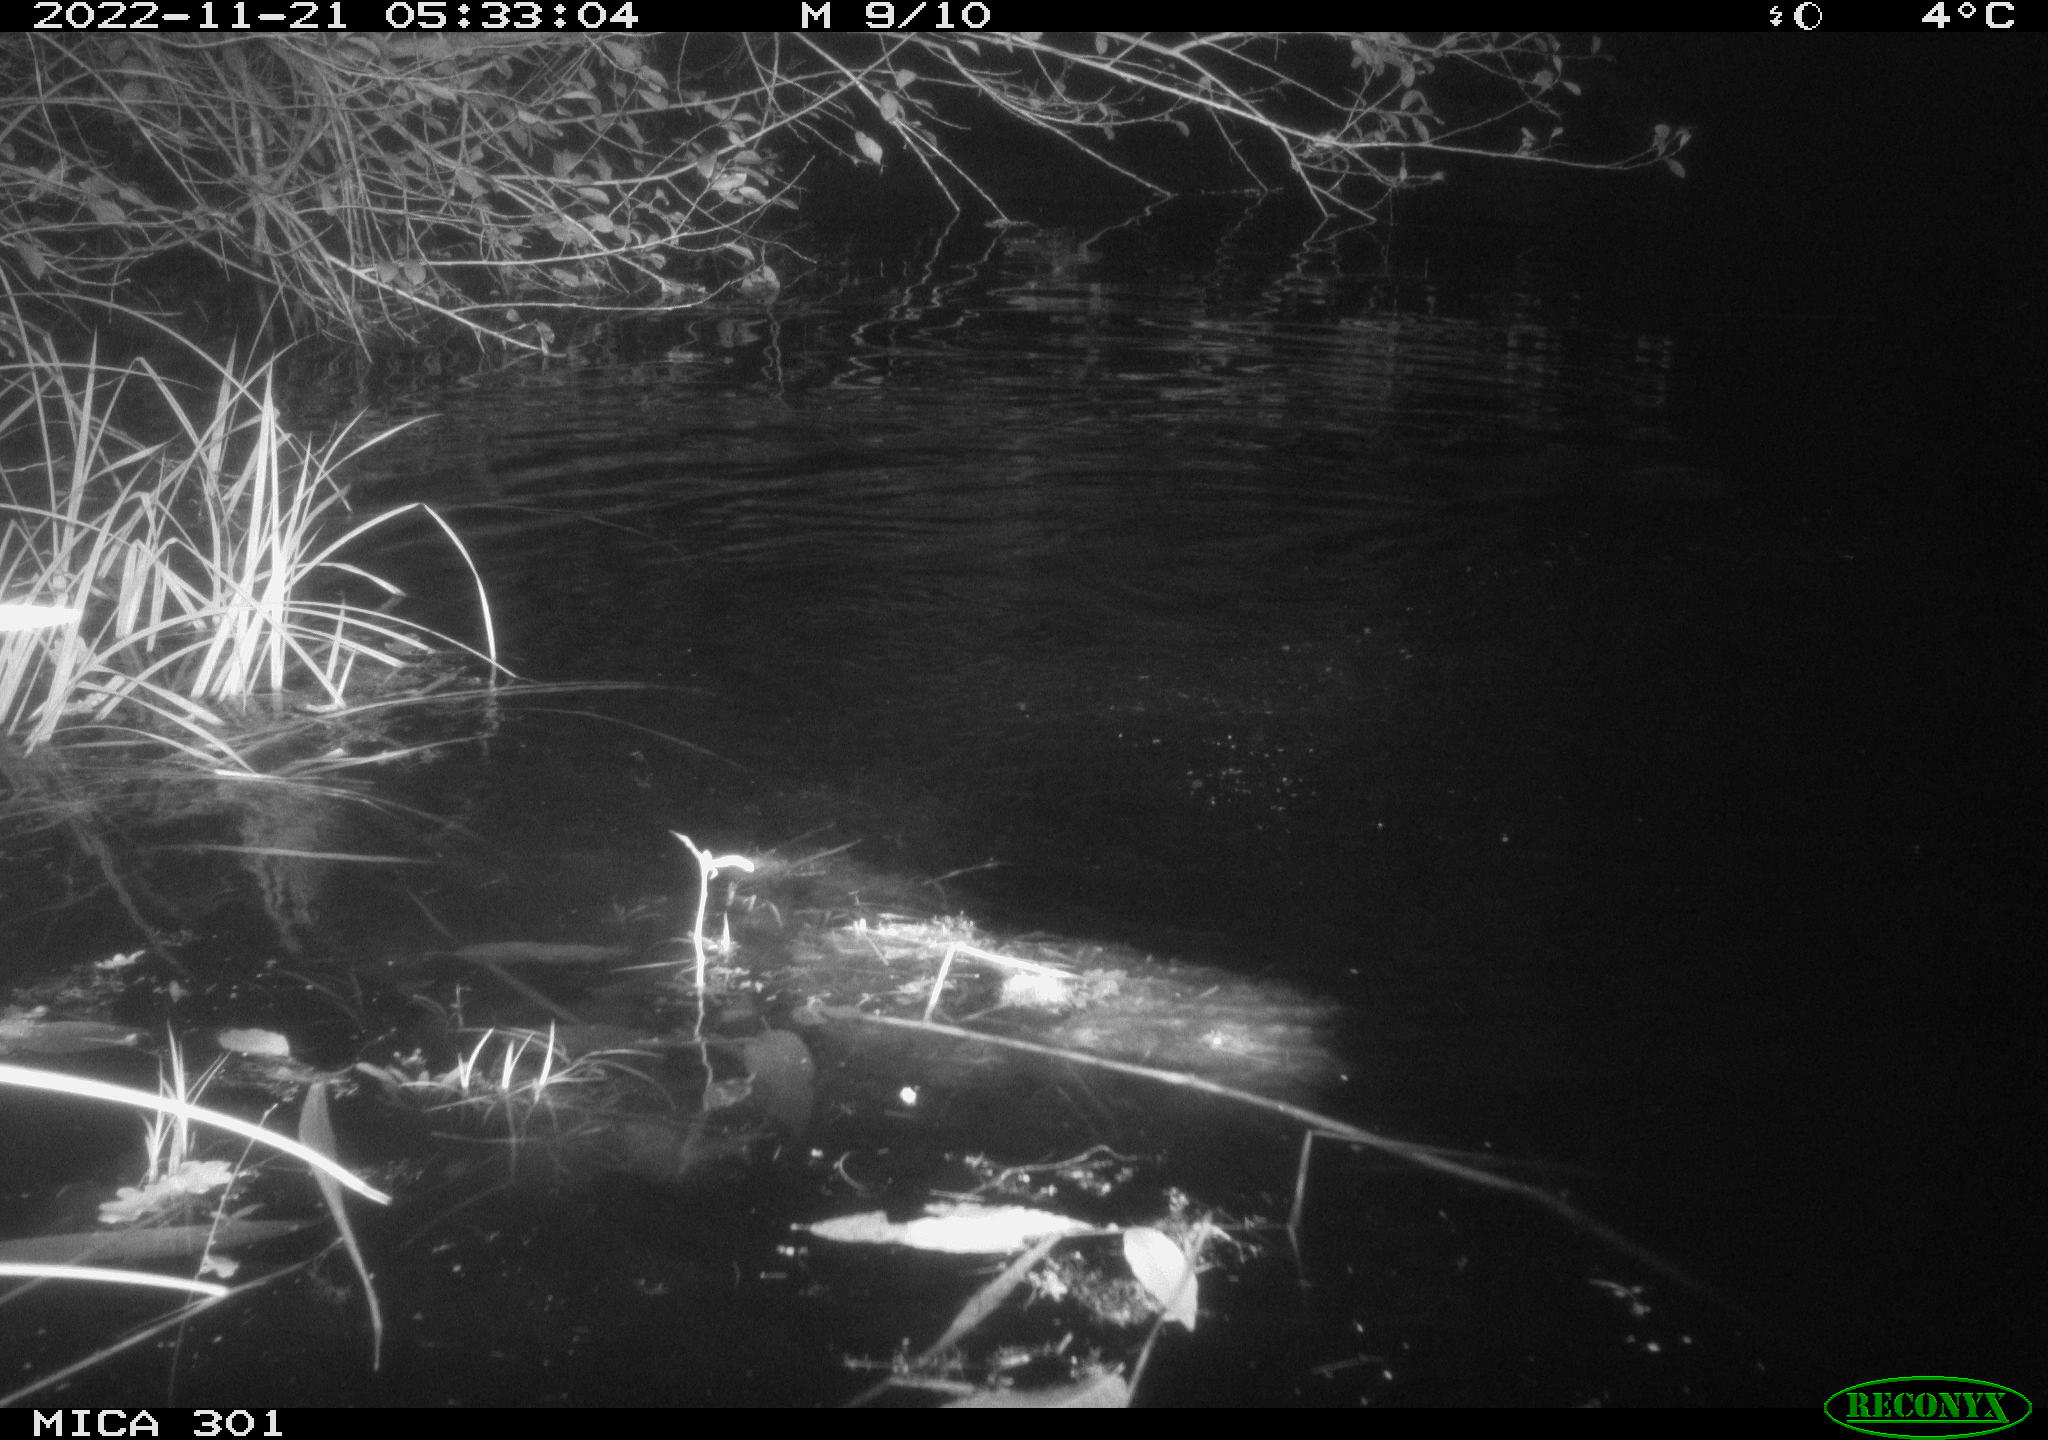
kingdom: Animalia
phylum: Chordata
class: Mammalia
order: Rodentia
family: Castoridae
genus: Castor
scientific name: Castor fiber
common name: Eurasian beaver
